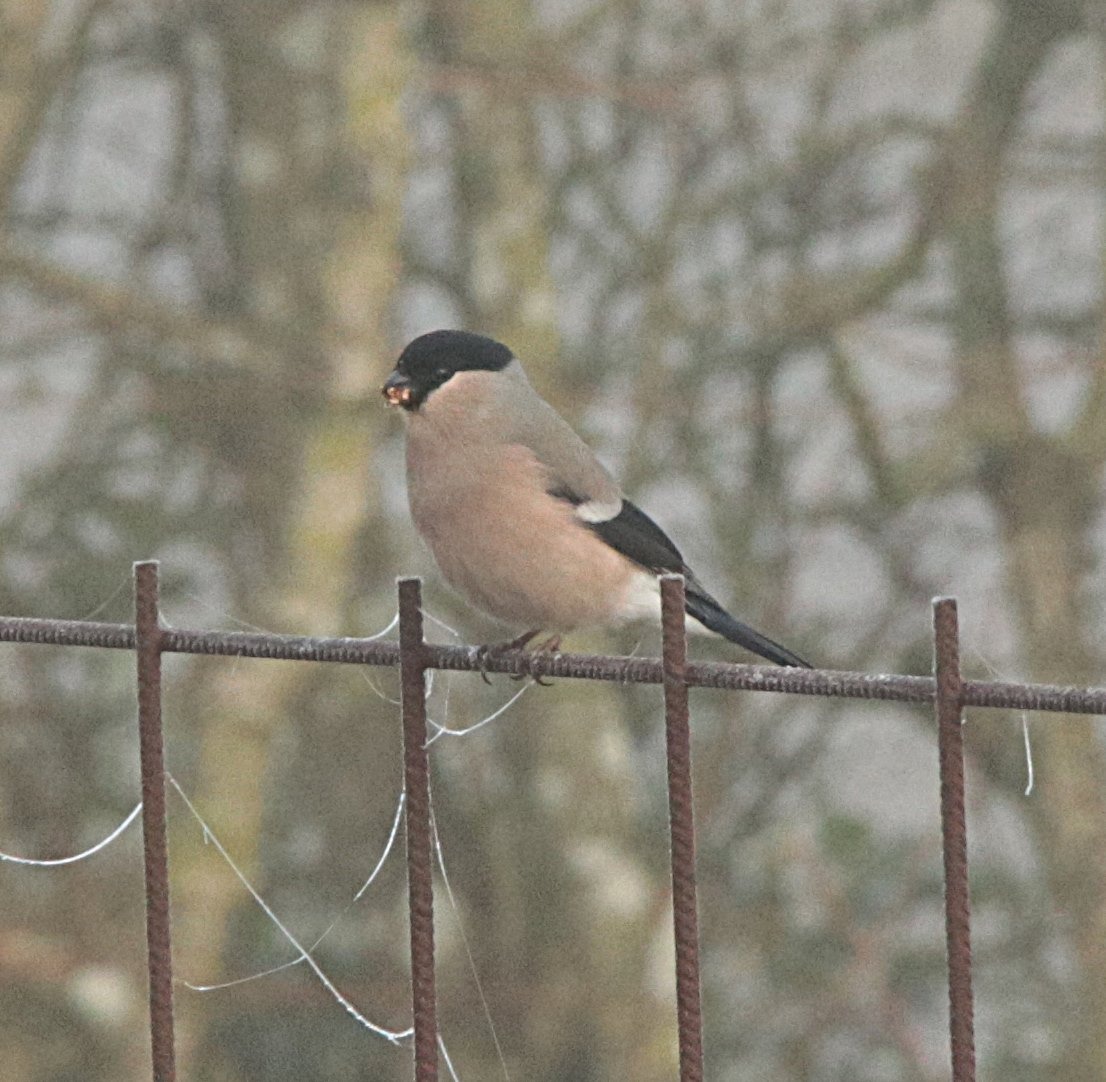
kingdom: Animalia
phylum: Chordata
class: Aves
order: Passeriformes
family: Fringillidae
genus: Pyrrhula
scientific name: Pyrrhula pyrrhula
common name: Dompap
